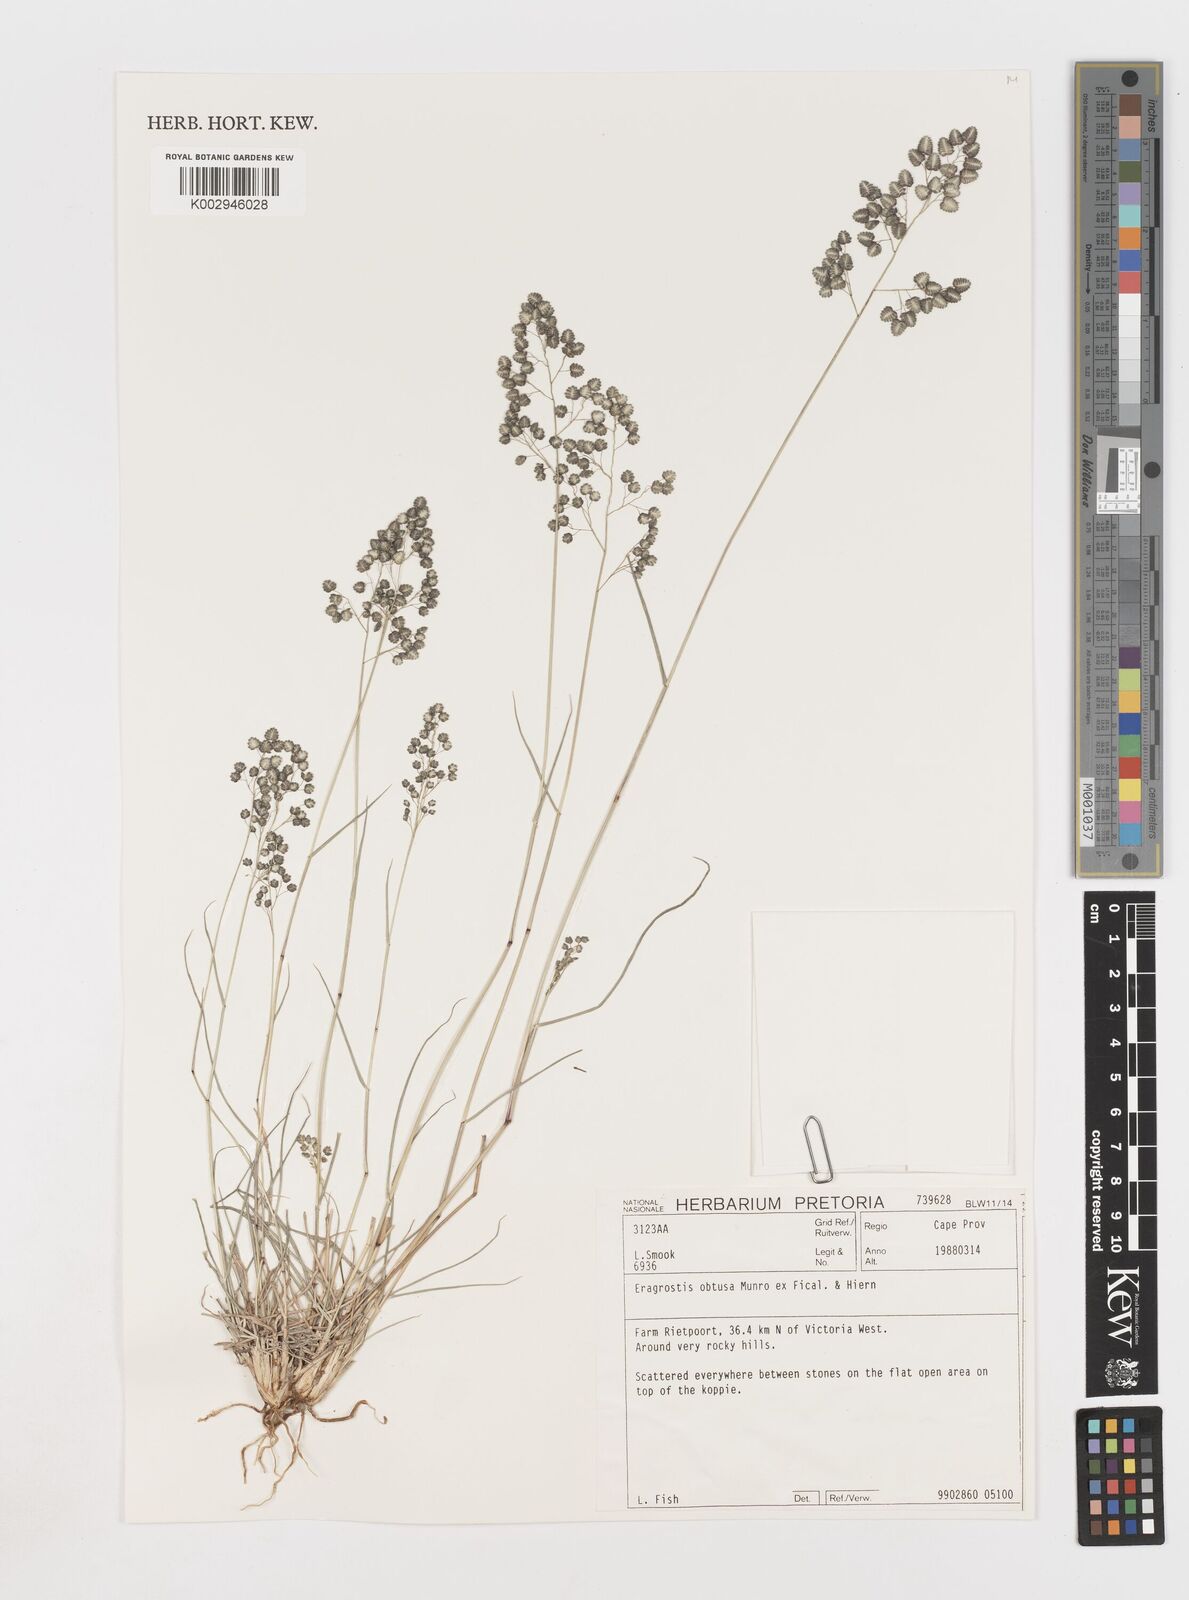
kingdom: Plantae
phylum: Tracheophyta
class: Liliopsida
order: Poales
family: Poaceae
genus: Eragrostis
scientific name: Eragrostis obtusa
